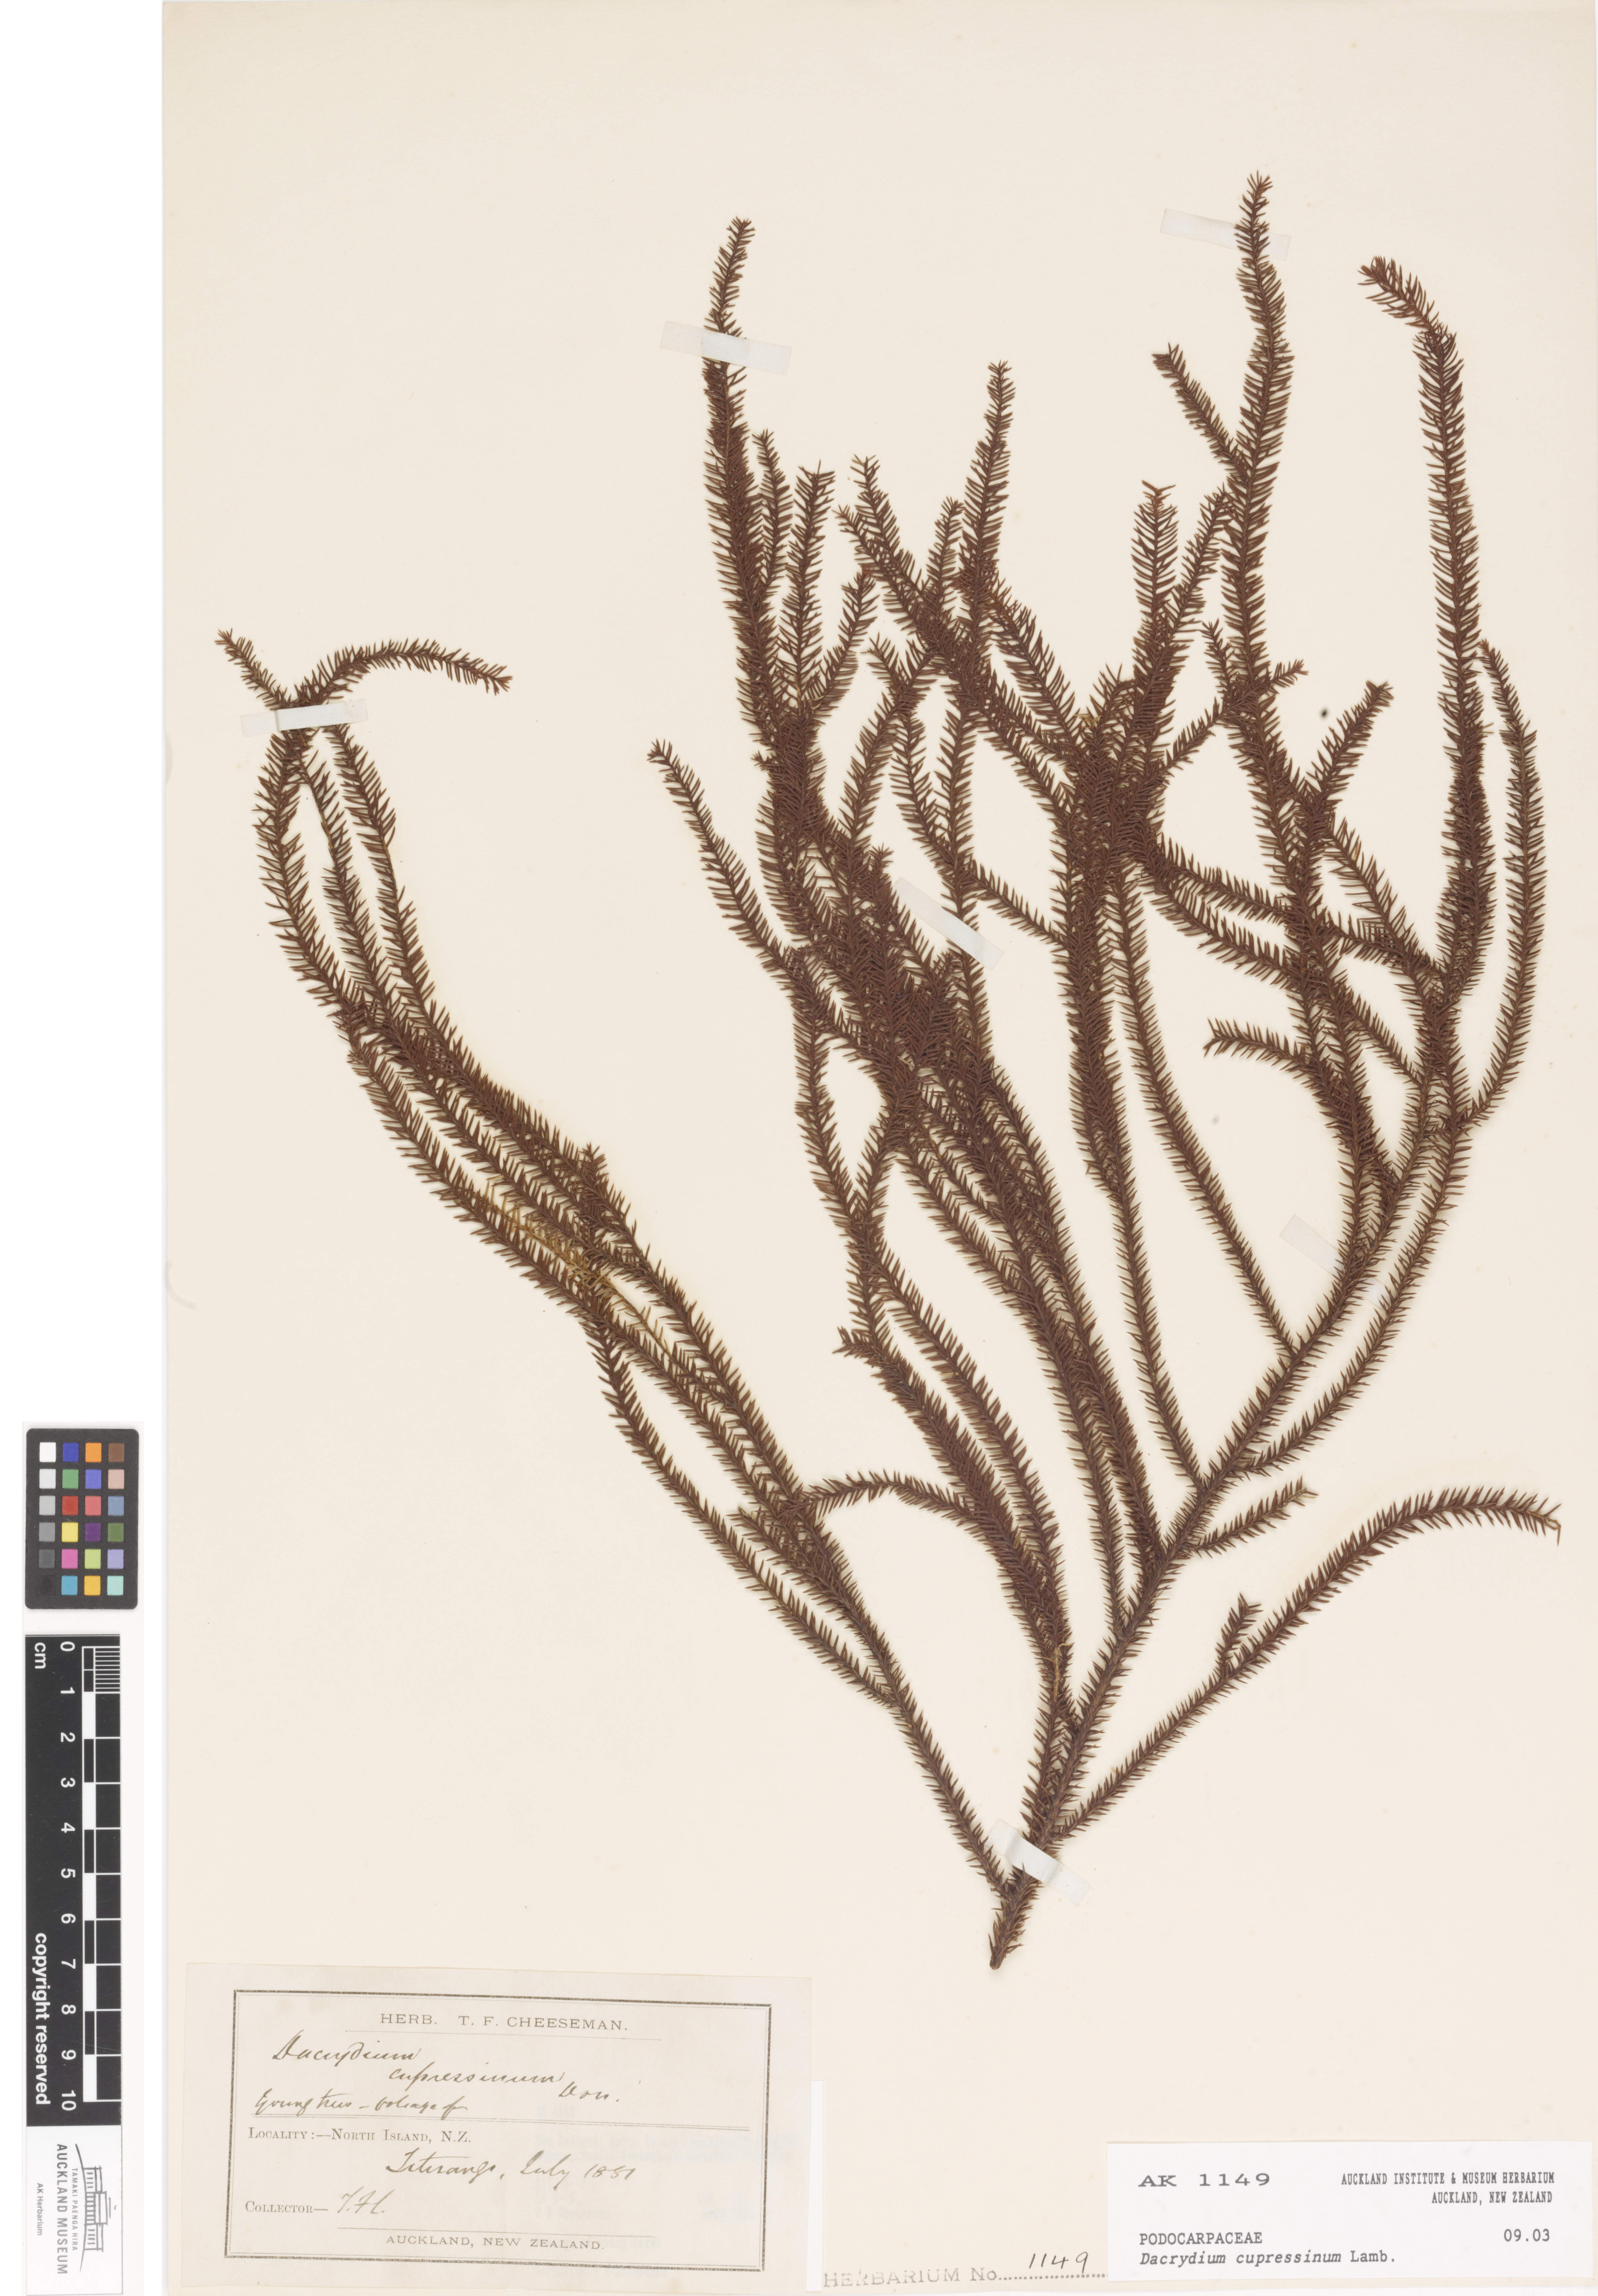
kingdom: Plantae
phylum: Tracheophyta
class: Pinopsida
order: Pinales
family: Podocarpaceae
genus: Dacrydium
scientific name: Dacrydium cupressinum
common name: Red pine
